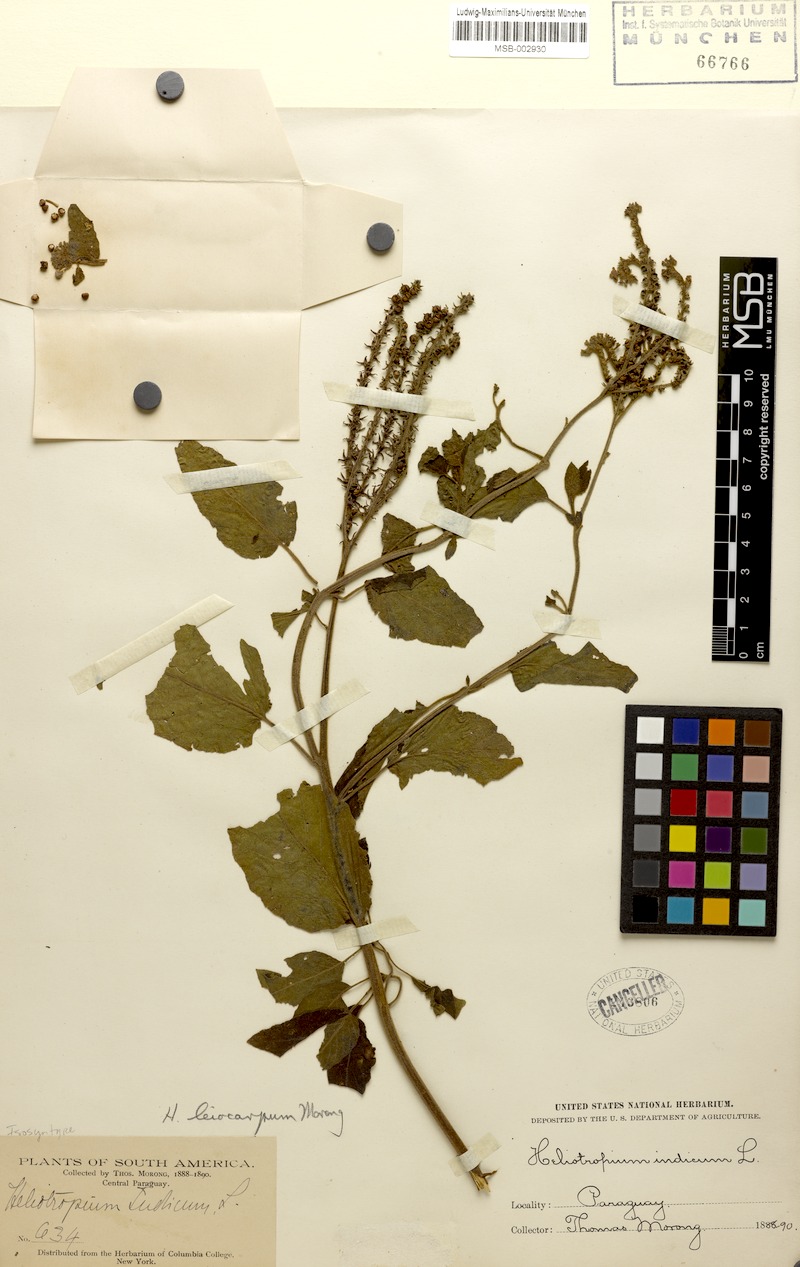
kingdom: Plantae
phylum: Tracheophyta
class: Magnoliopsida
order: Boraginales
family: Heliotropiaceae
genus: Heliotropium
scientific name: Heliotropium leiocarpum
